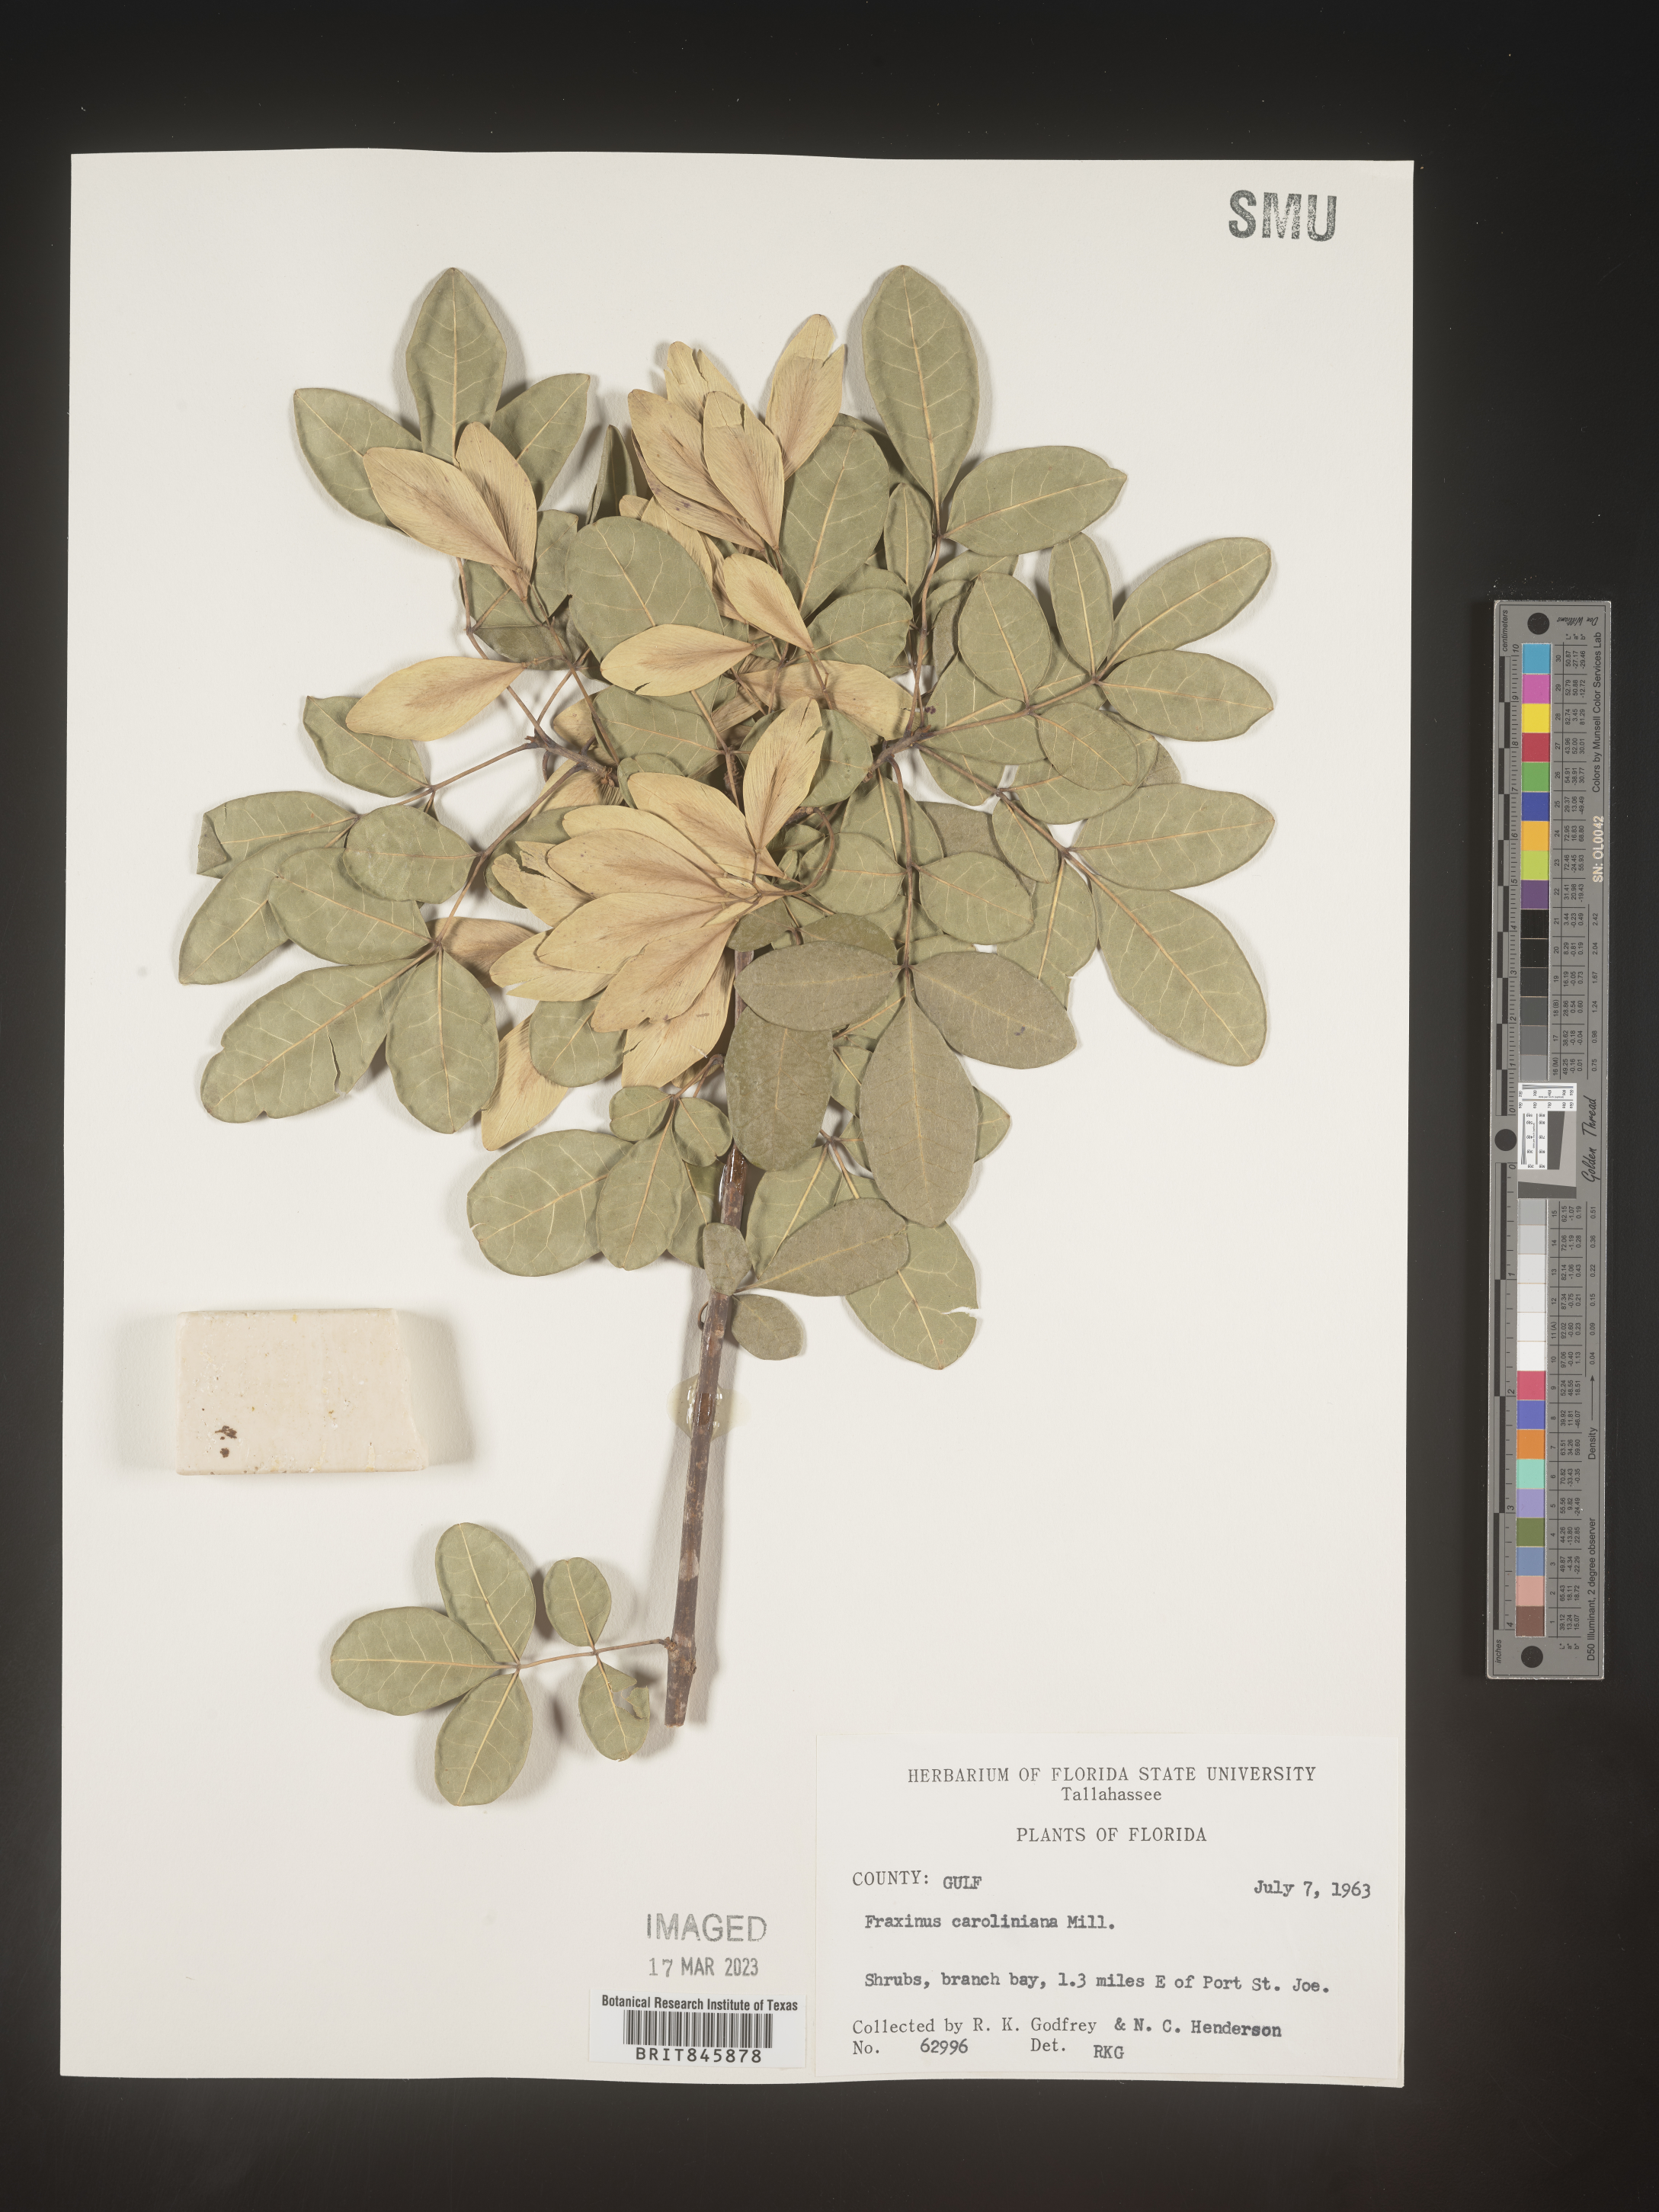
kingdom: Plantae
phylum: Tracheophyta
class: Magnoliopsida
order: Lamiales
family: Oleaceae
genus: Fraxinus
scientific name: Fraxinus caroliniana
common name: Carolina ash
